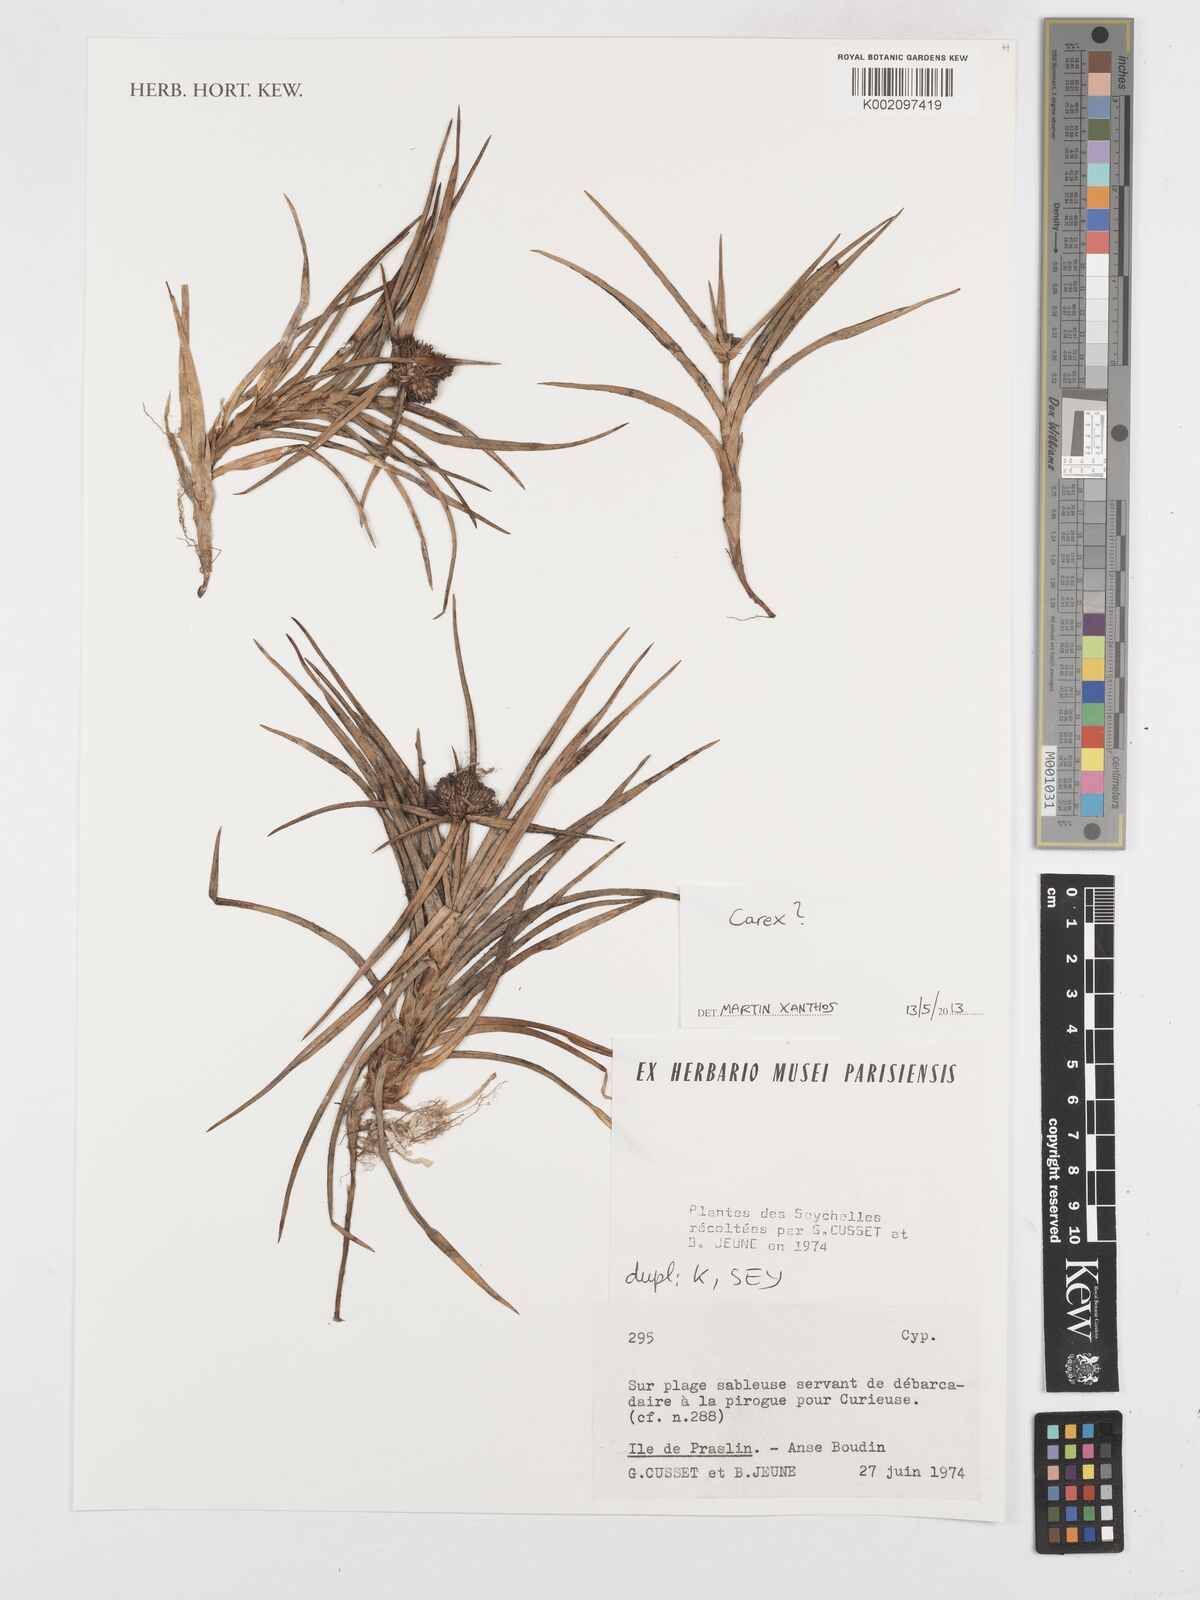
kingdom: Plantae
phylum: Tracheophyta
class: Liliopsida
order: Poales
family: Cyperaceae
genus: Carex
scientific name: Carex
